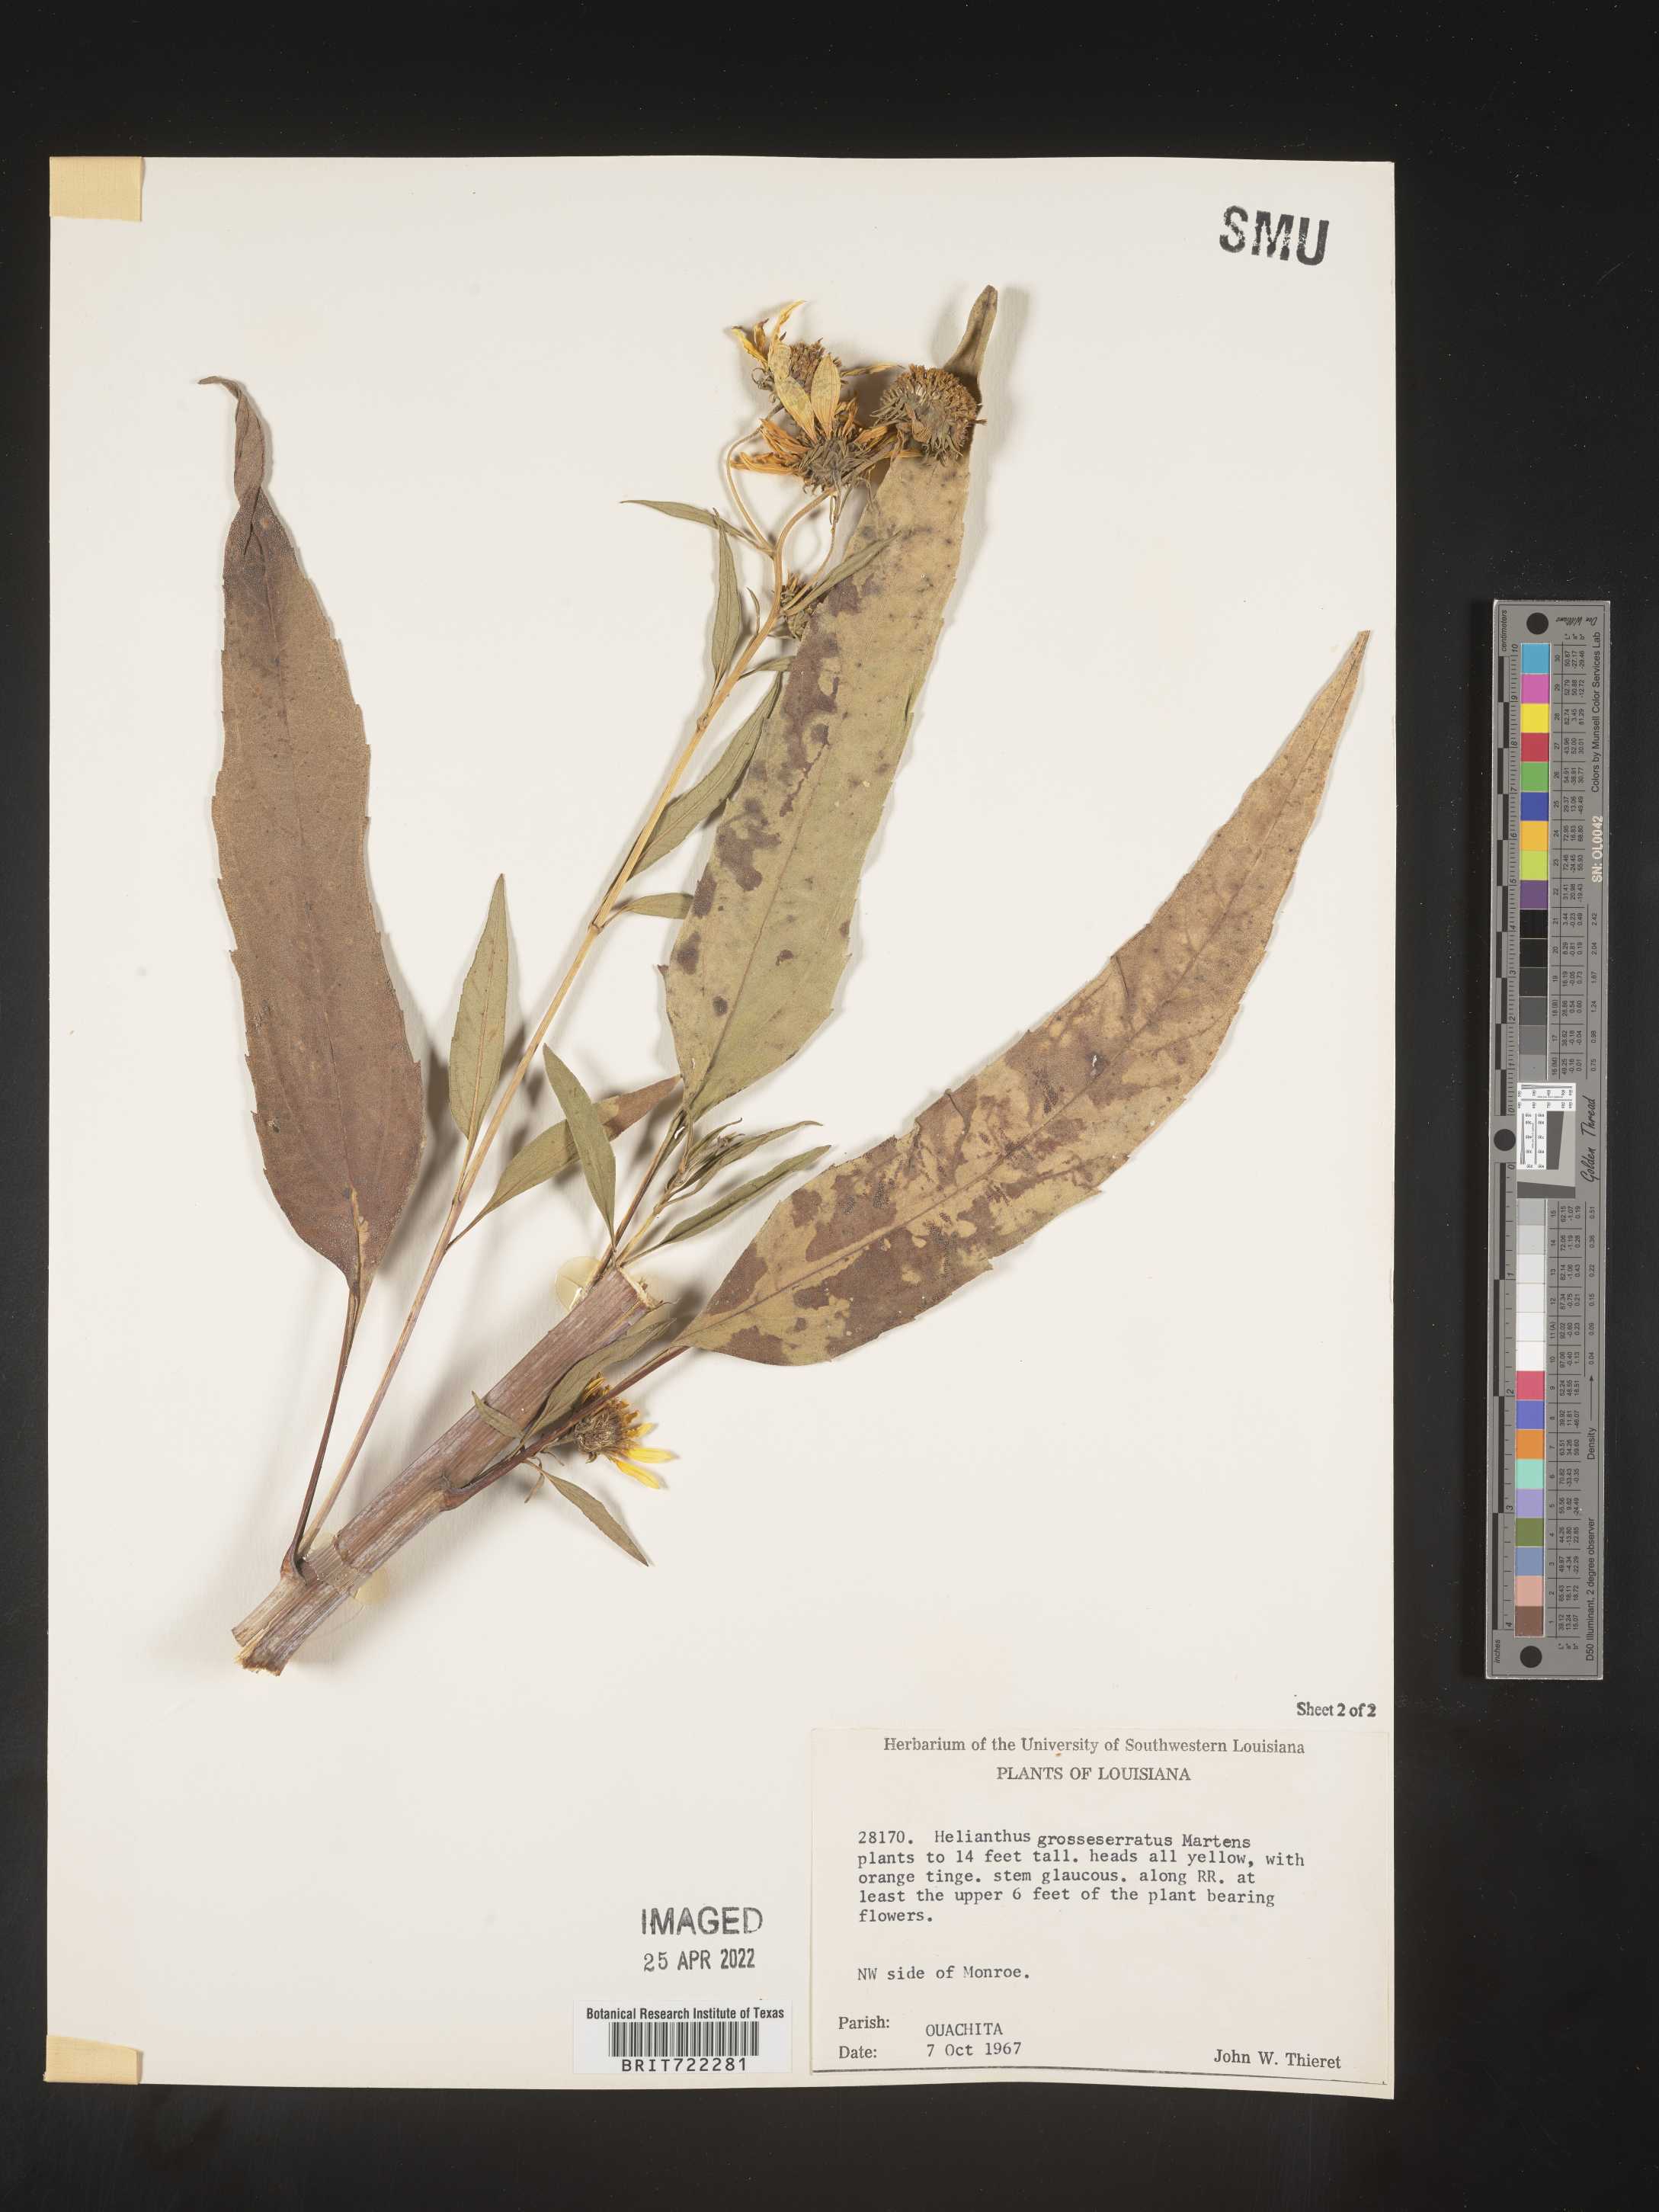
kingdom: Plantae
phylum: Tracheophyta
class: Magnoliopsida
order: Asterales
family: Asteraceae
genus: Helianthus
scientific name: Helianthus grosseserratus
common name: Sawtooth sunflower
